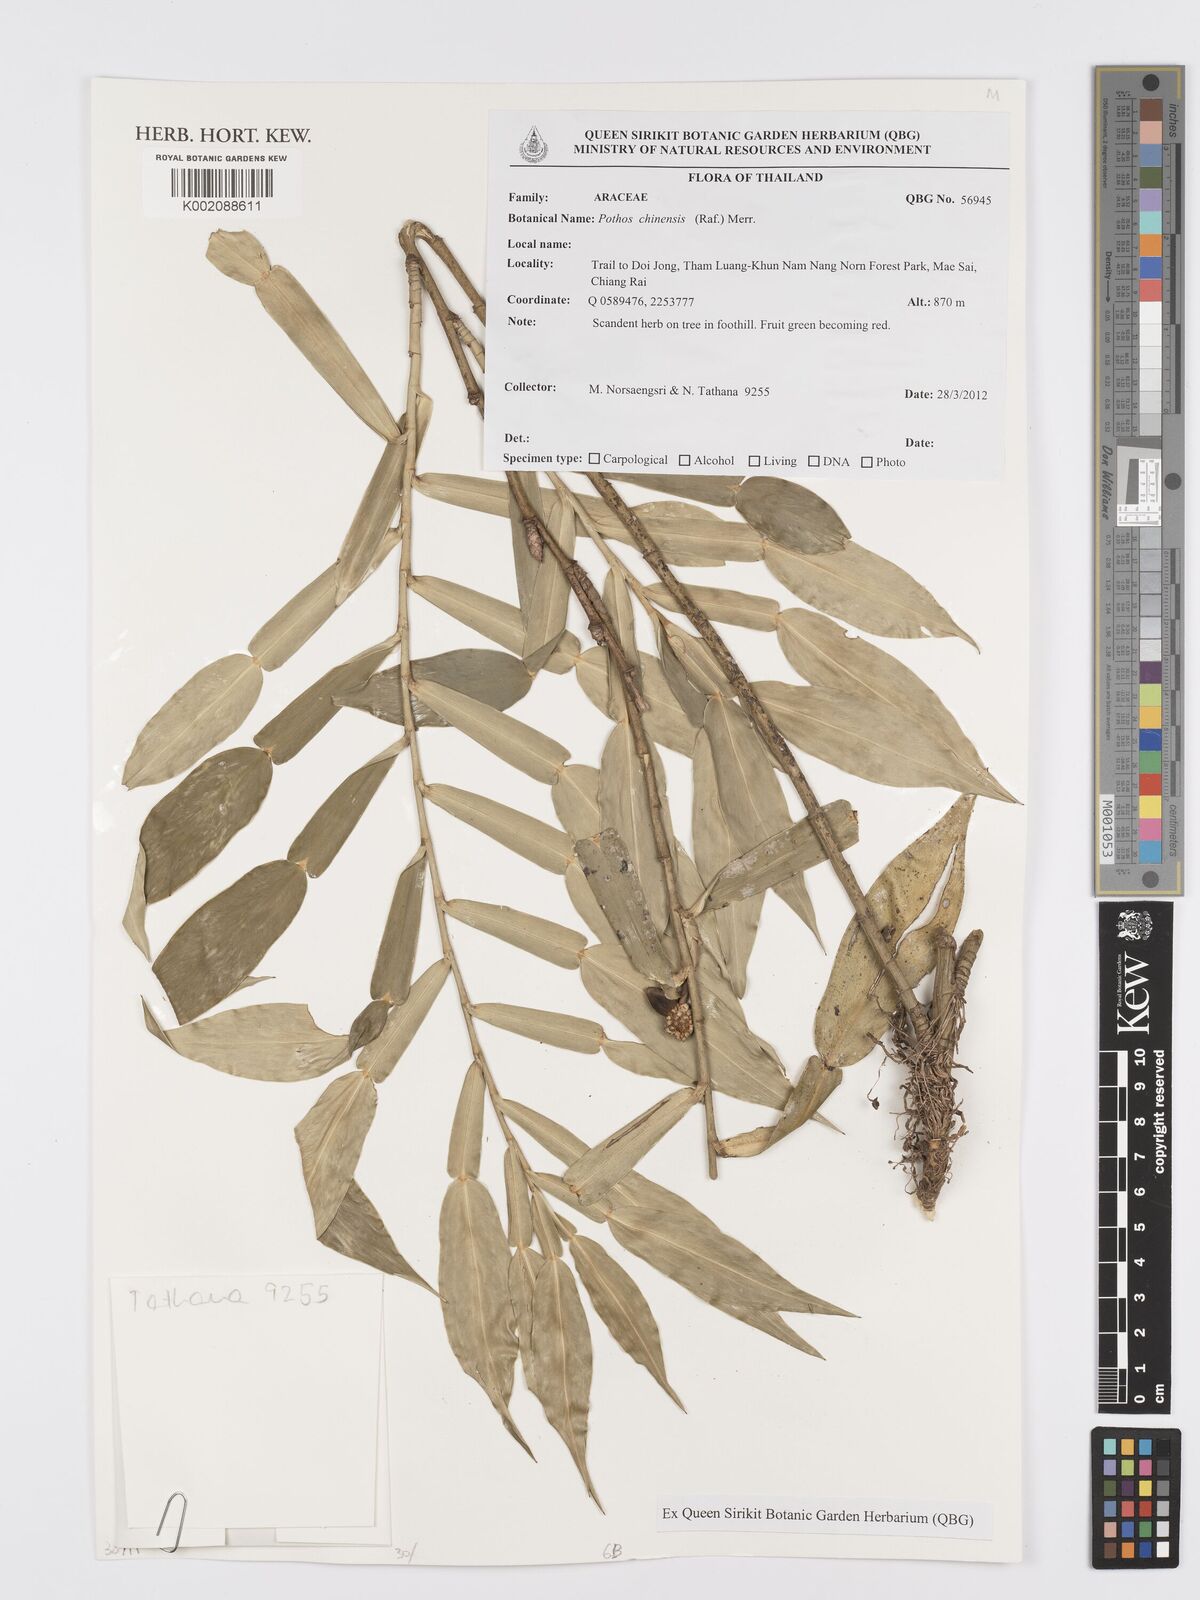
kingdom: Plantae
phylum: Tracheophyta
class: Liliopsida
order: Alismatales
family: Araceae
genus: Pothos
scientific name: Pothos chinensis
